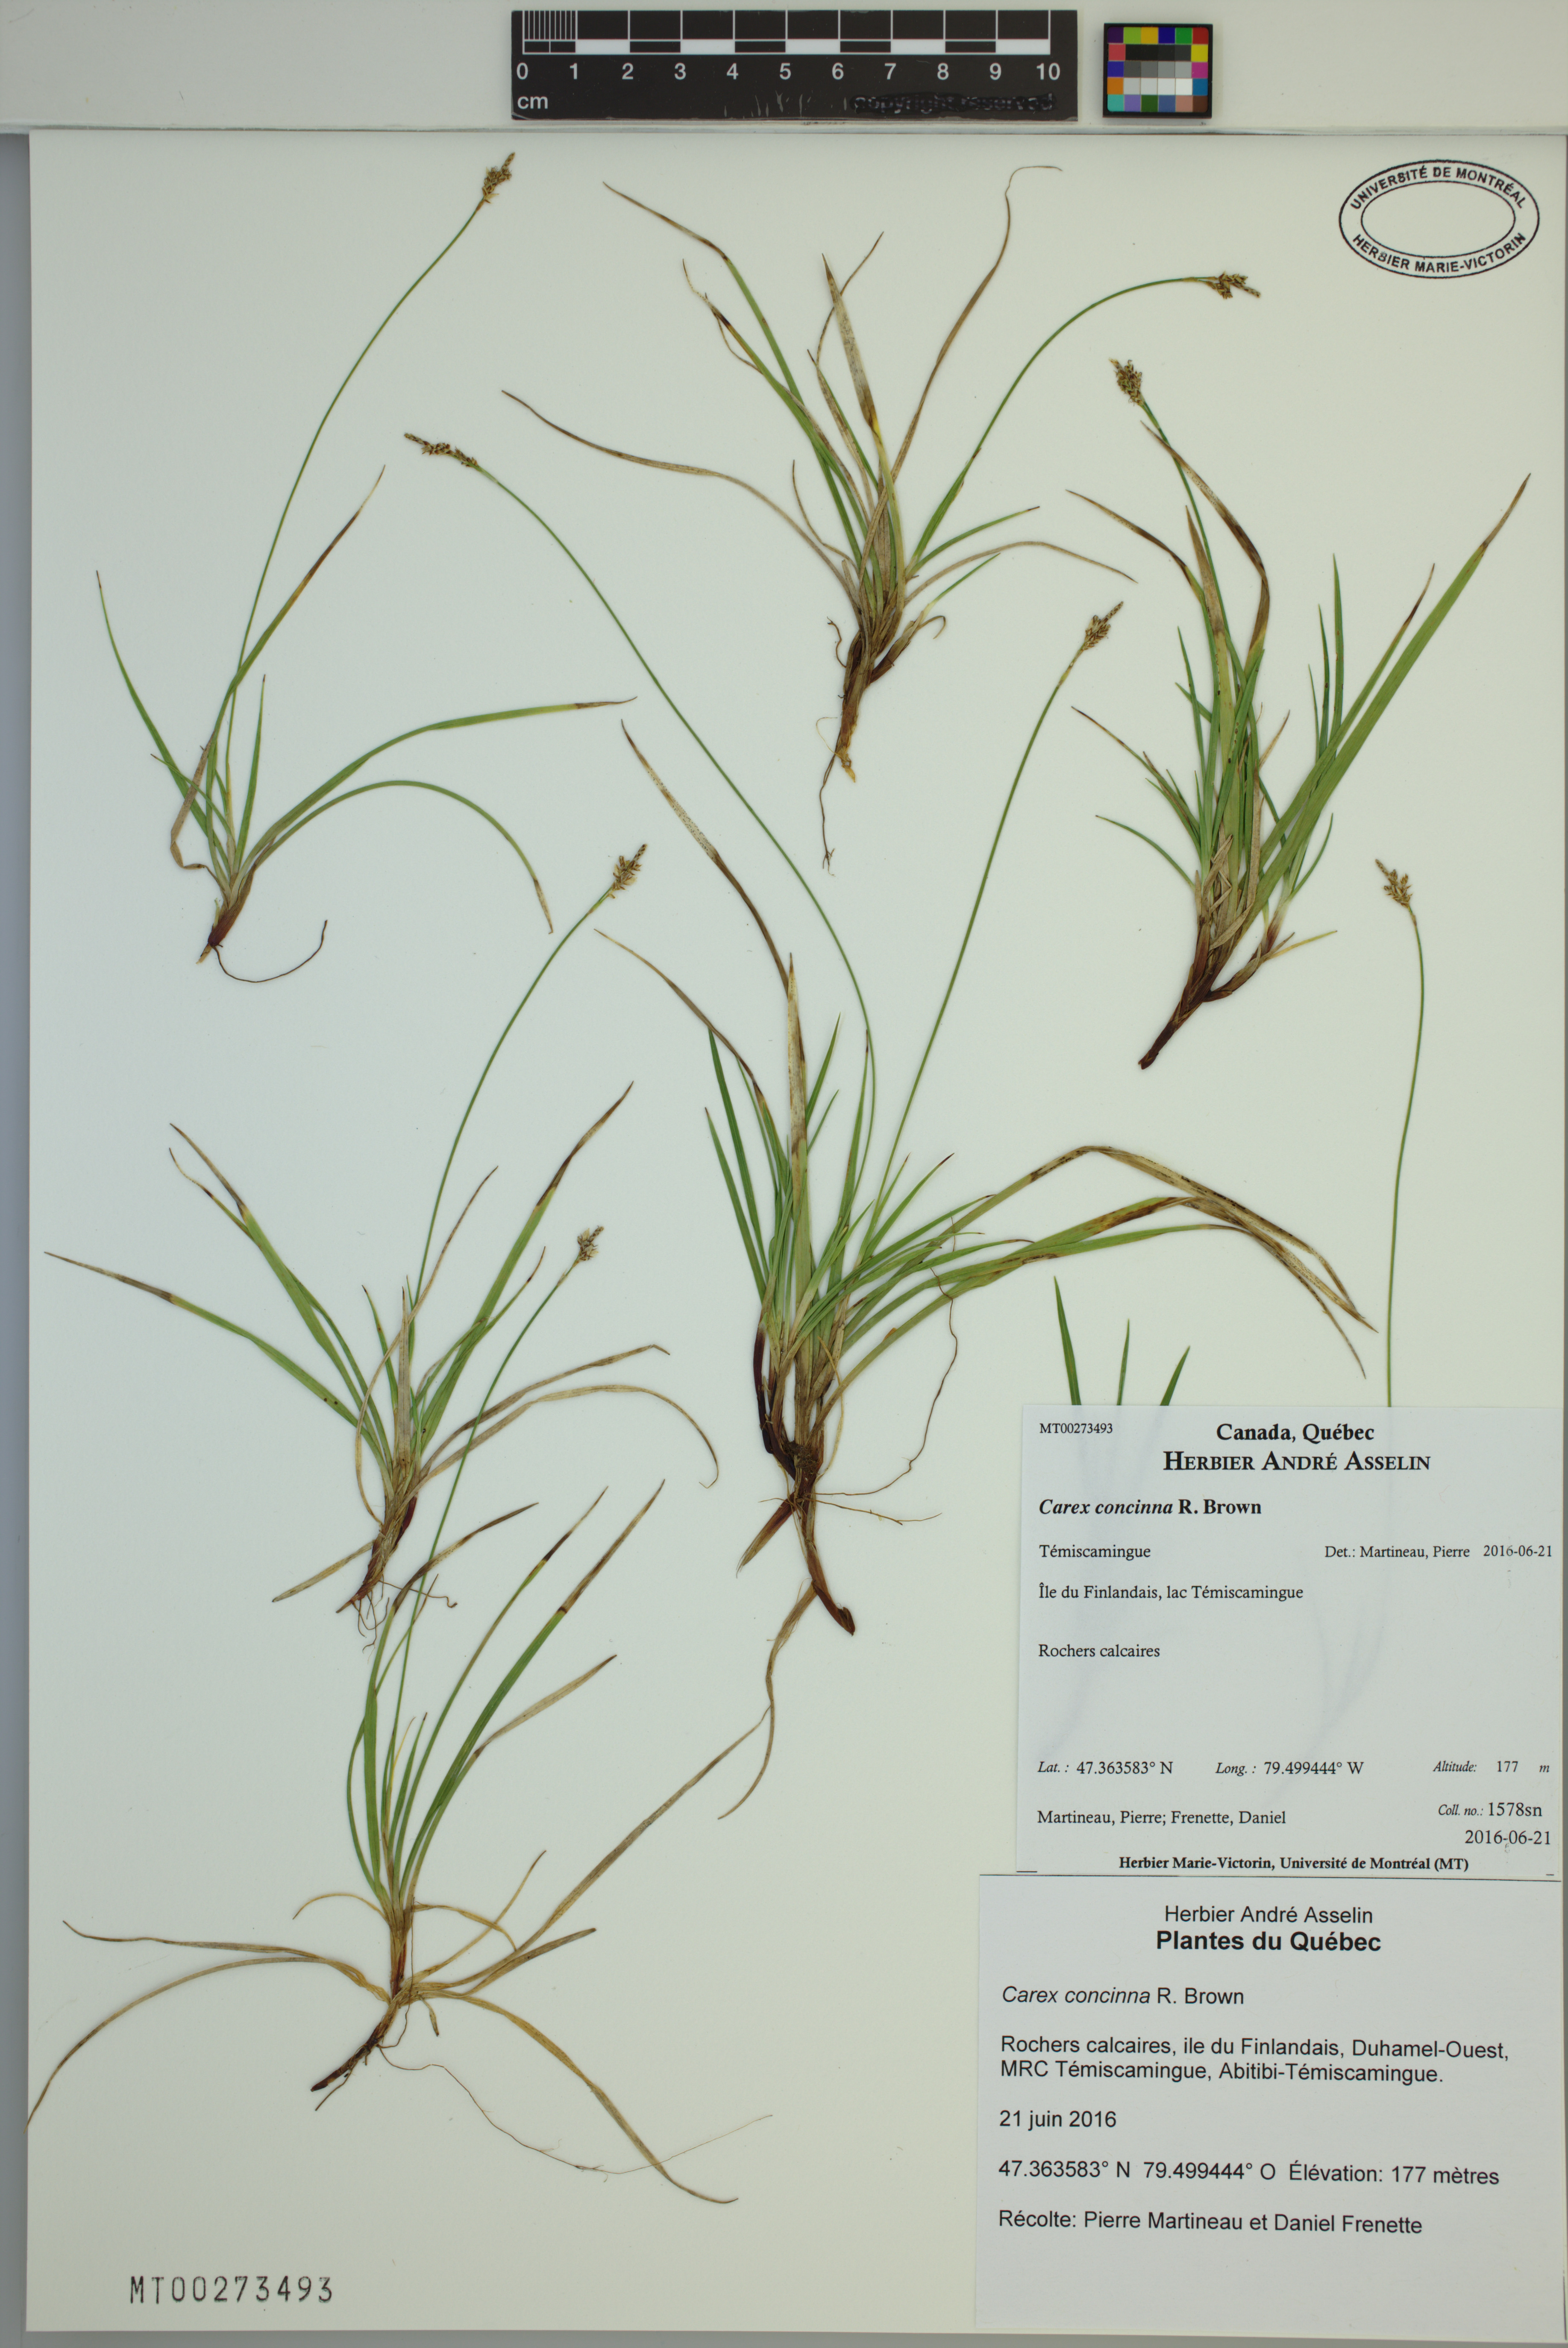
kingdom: Plantae
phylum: Tracheophyta
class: Liliopsida
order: Poales
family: Cyperaceae
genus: Carex
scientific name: Carex concinna
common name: Beautiful sedge
